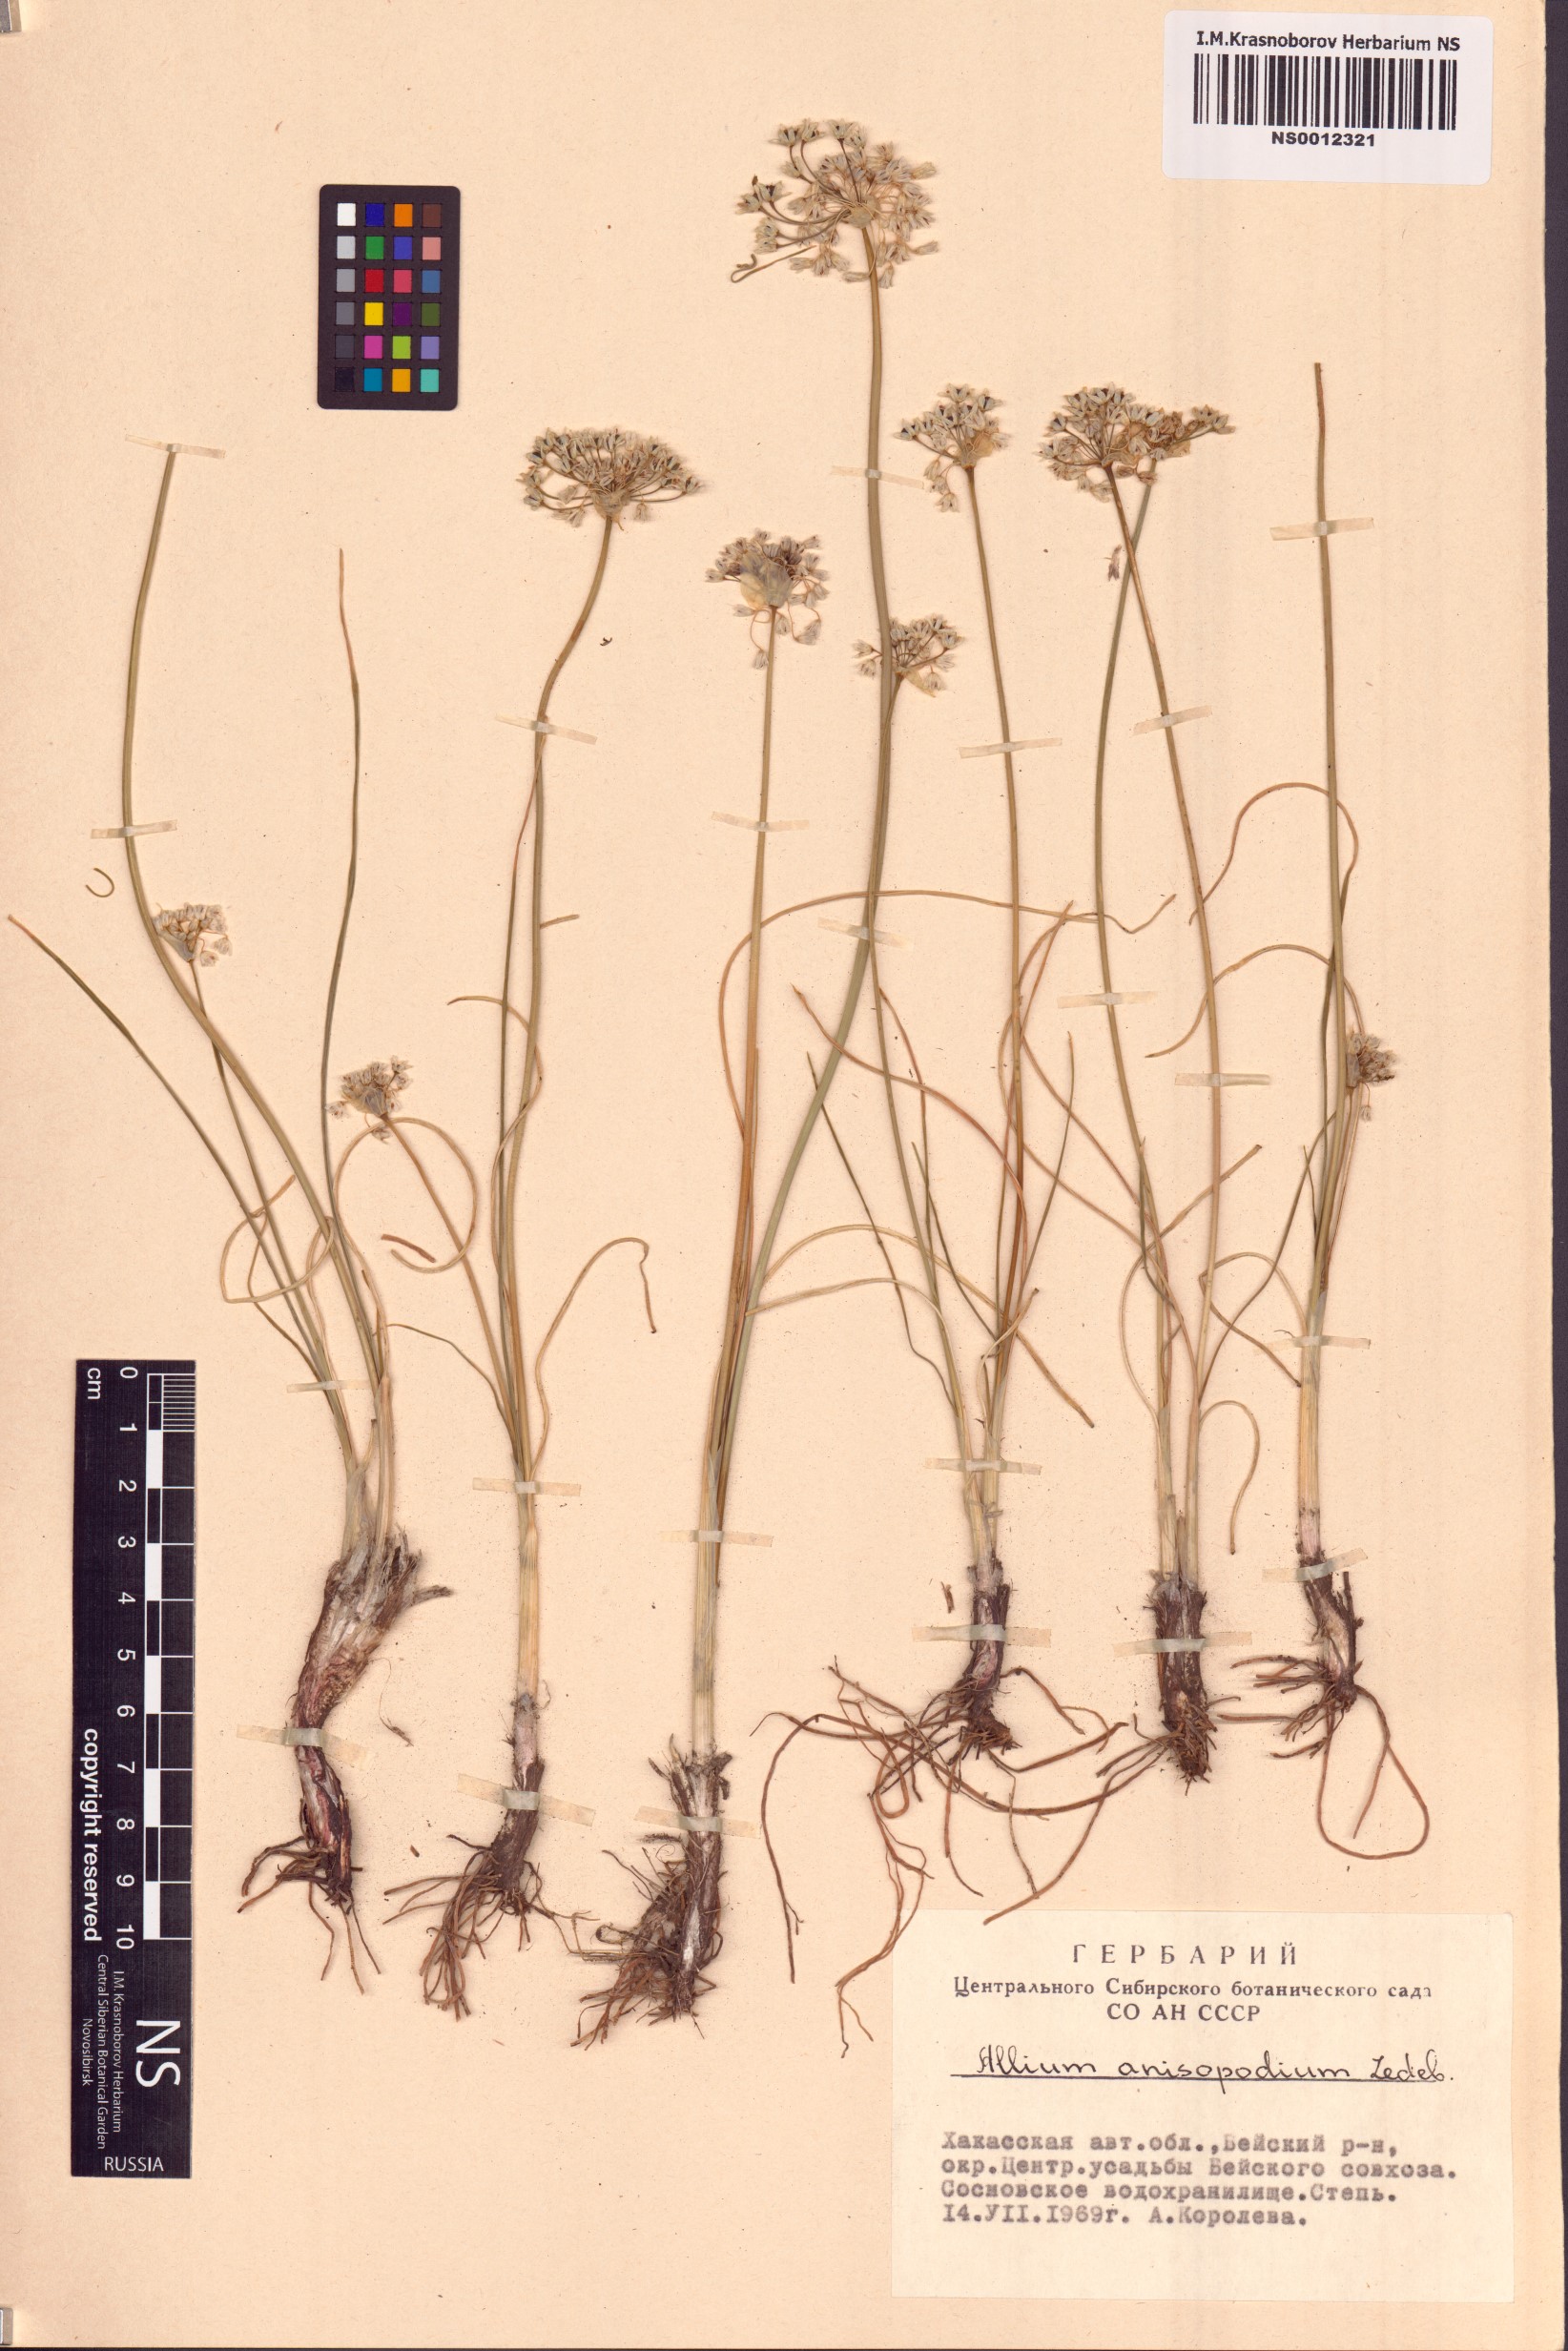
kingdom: Plantae
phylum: Tracheophyta
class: Liliopsida
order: Asparagales
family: Amaryllidaceae
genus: Allium
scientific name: Allium anisopodium
